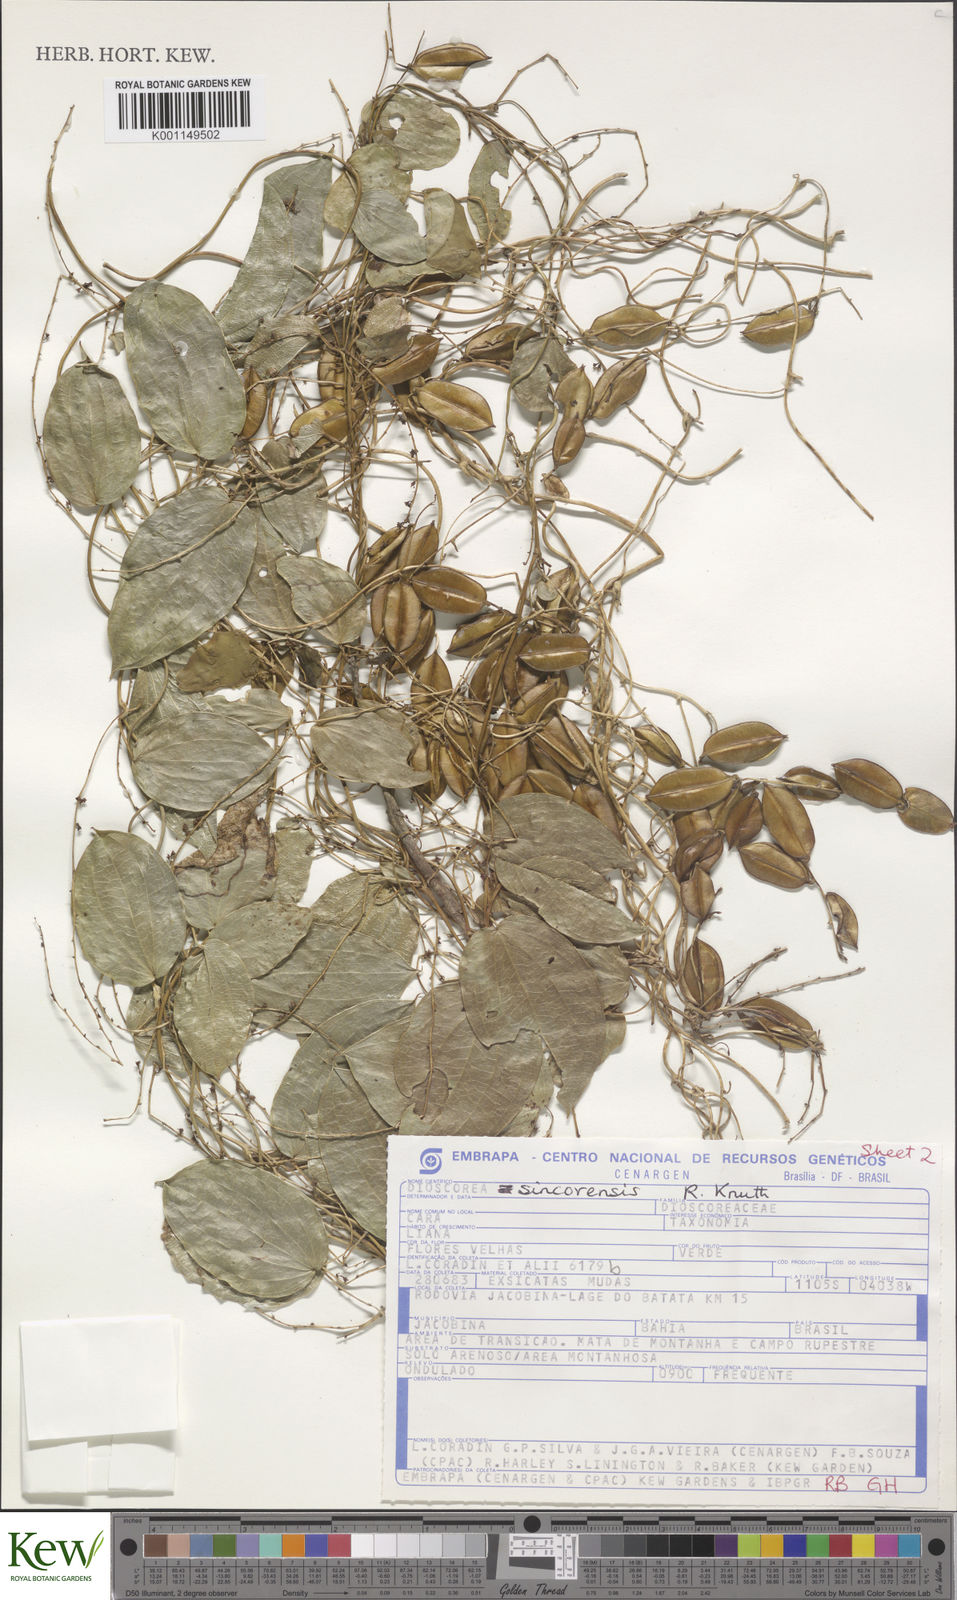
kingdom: Plantae
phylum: Tracheophyta
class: Liliopsida
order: Dioscoreales
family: Dioscoreaceae
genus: Dioscorea
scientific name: Dioscorea sincorensis
